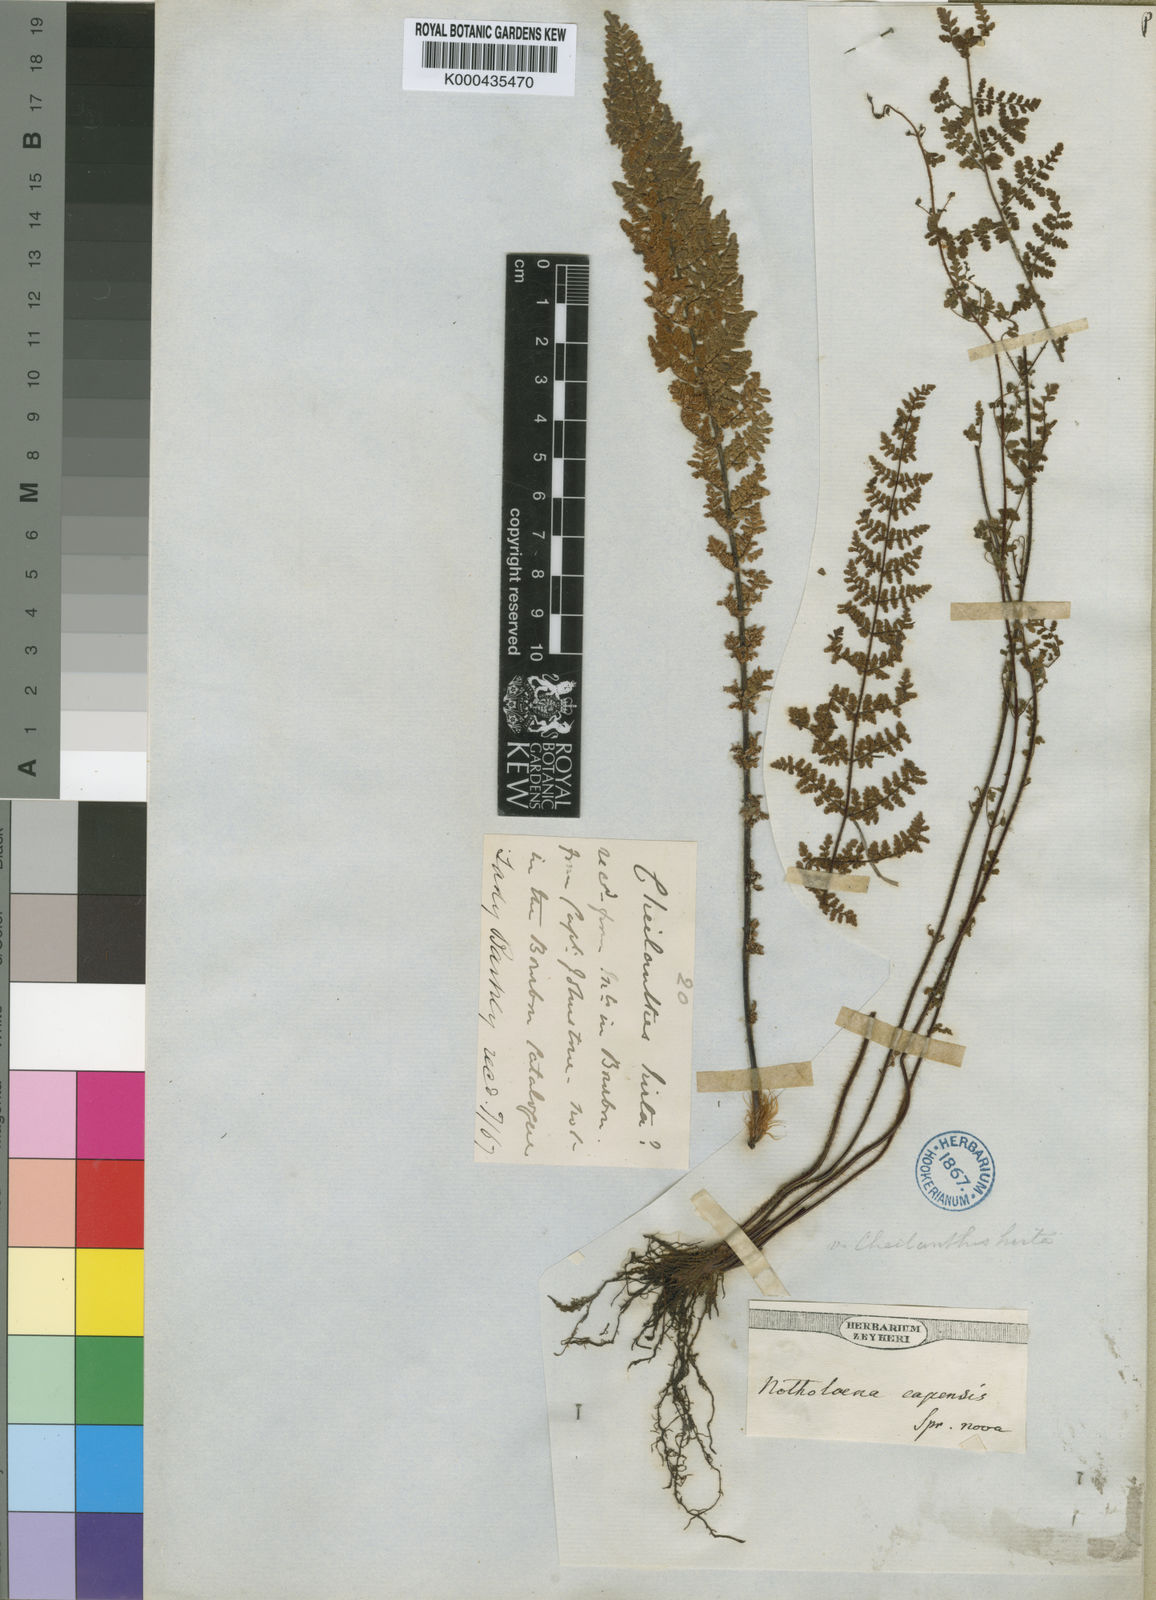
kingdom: Plantae
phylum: Tracheophyta
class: Polypodiopsida
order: Polypodiales
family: Pteridaceae
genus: Cheilanthes
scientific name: Cheilanthes hirta
